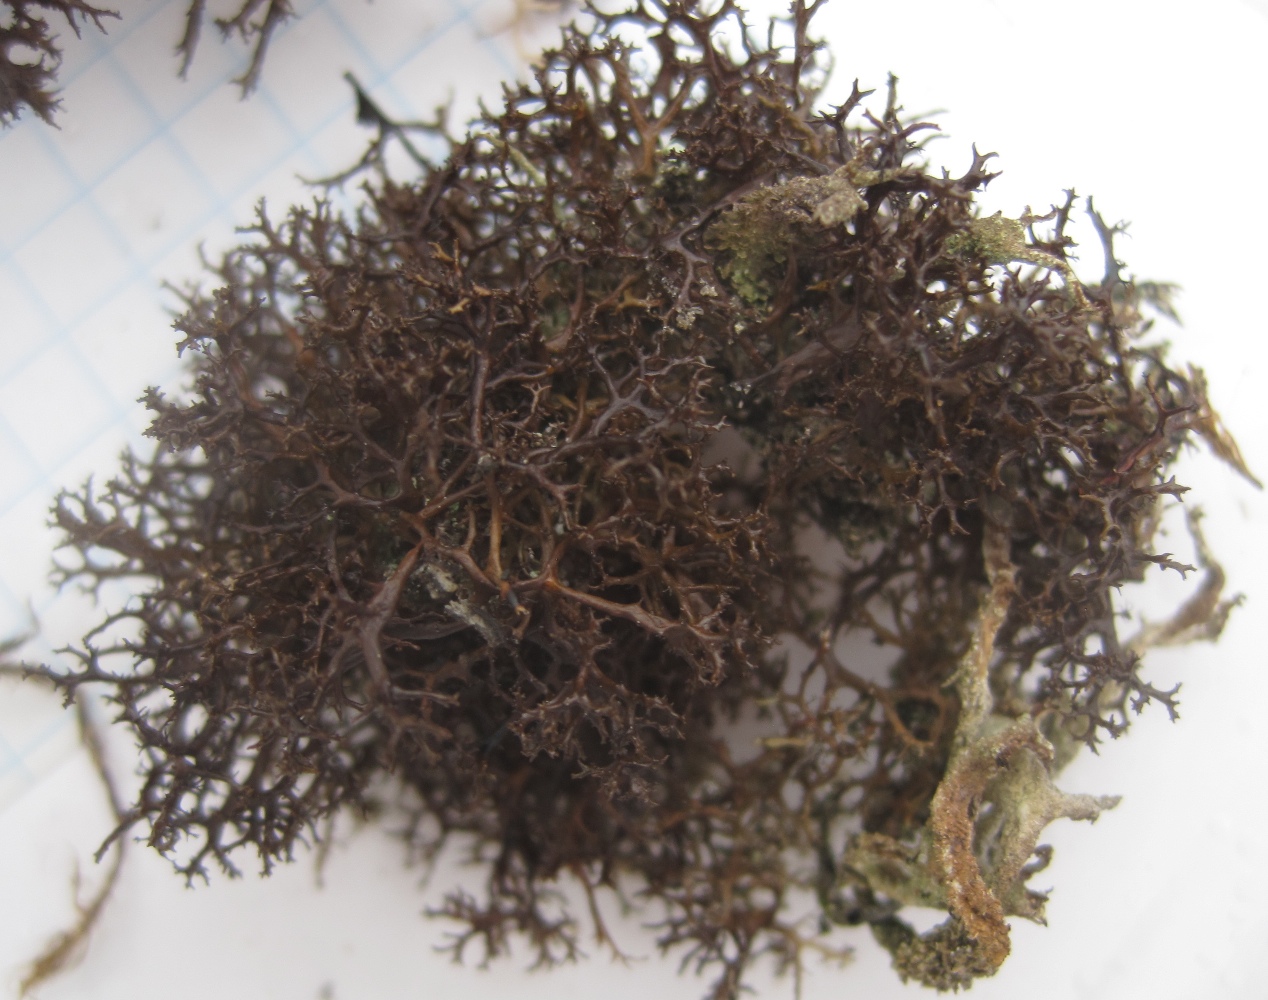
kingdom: Fungi
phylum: Ascomycota
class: Lecanoromycetes
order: Lecanorales
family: Parmeliaceae
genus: Cetraria
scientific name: Cetraria muricata
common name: tue-tjørnelav
